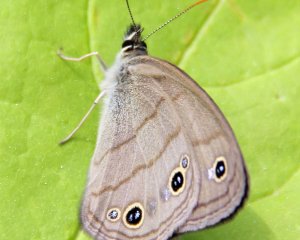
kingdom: Animalia
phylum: Arthropoda
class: Insecta
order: Lepidoptera
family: Nymphalidae
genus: Euptychia
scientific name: Euptychia cymela
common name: Little Wood Satyr
